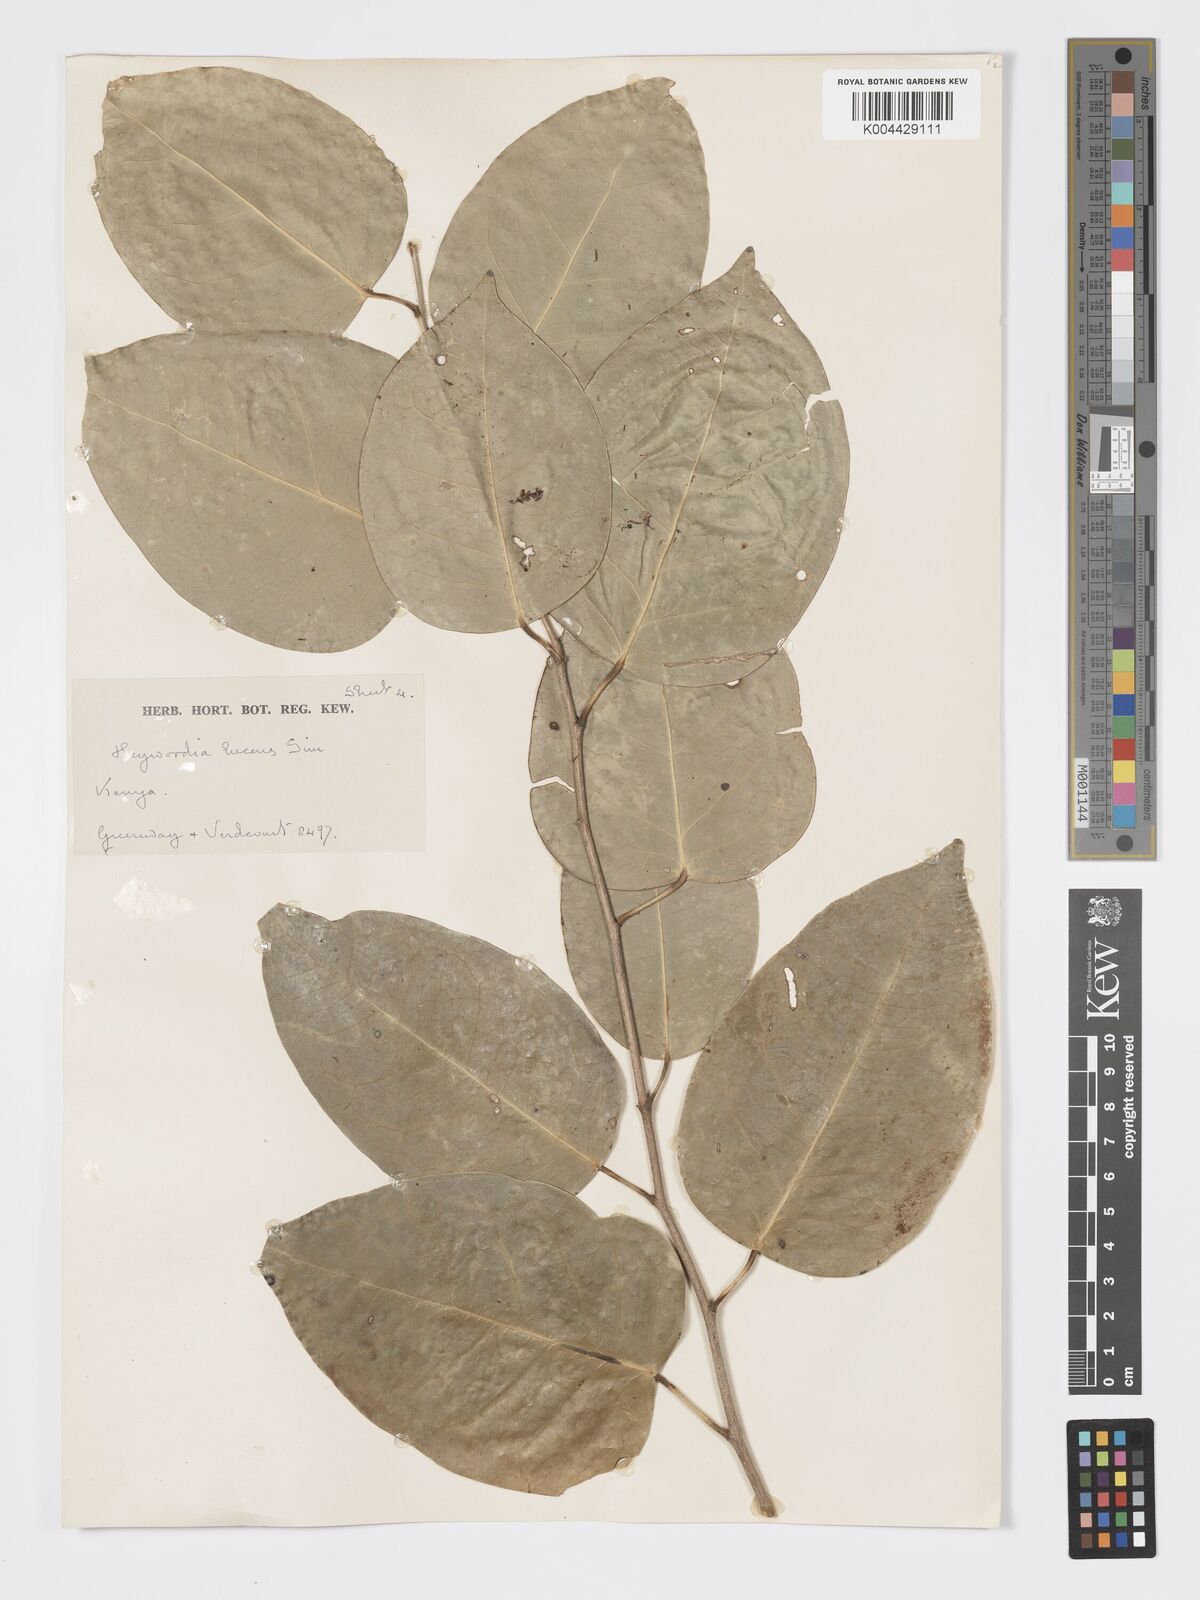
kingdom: Plantae
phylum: Tracheophyta
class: Magnoliopsida
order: Malpighiales
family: Phyllanthaceae
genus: Heywoodia
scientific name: Heywoodia lucens
